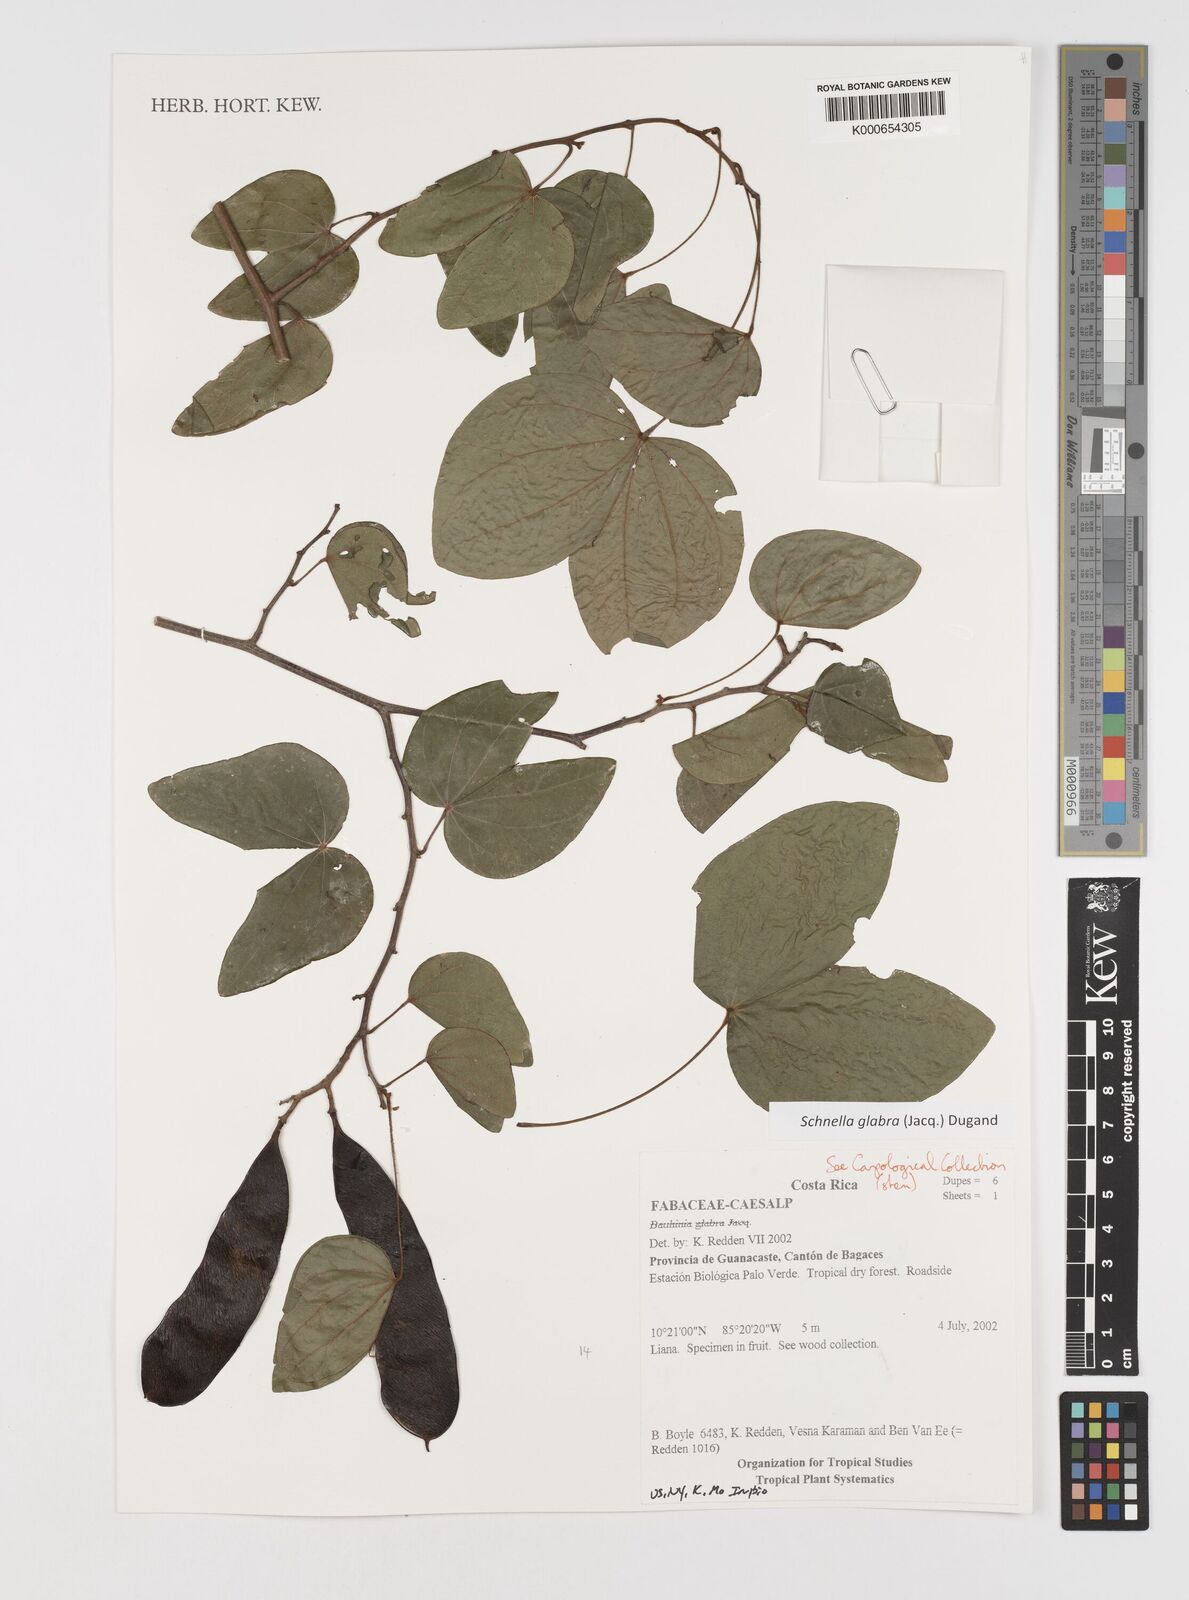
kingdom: Plantae
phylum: Tracheophyta
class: Magnoliopsida
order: Fabales
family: Fabaceae
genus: Schnella
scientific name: Schnella glabra
